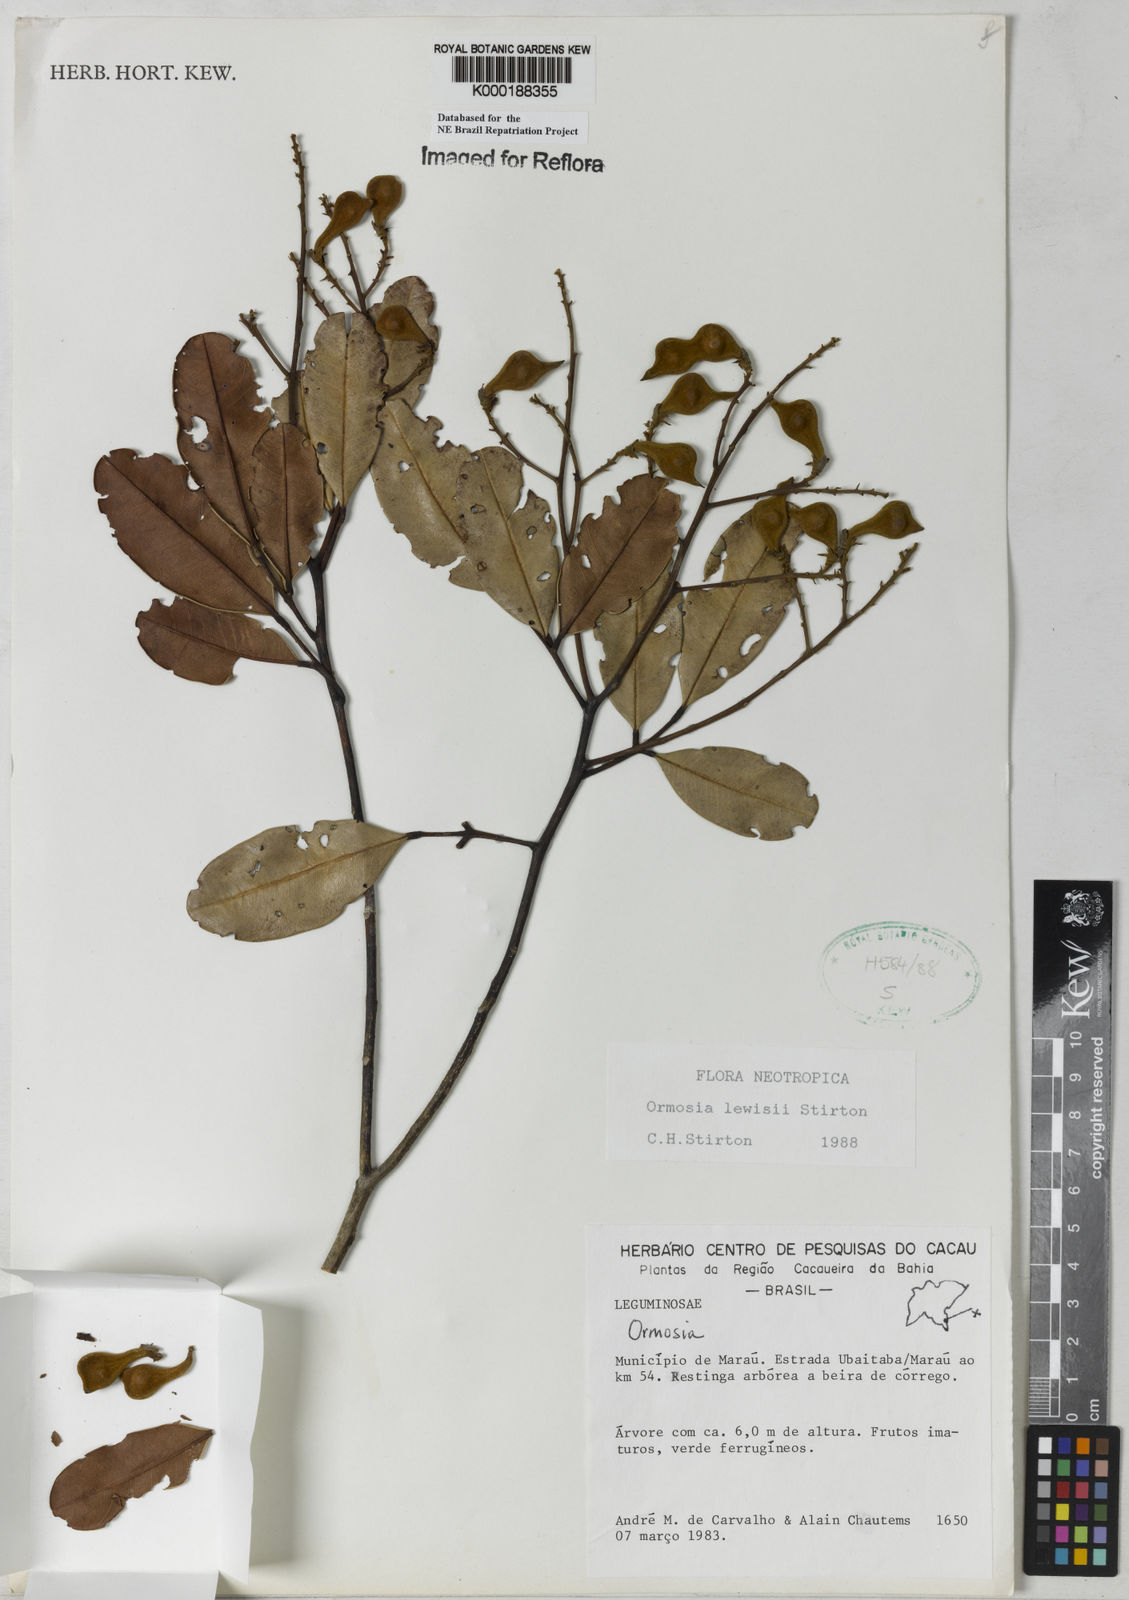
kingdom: Plantae
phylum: Tracheophyta
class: Magnoliopsida
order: Fabales
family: Fabaceae
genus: Ormosia
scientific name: Ormosia
